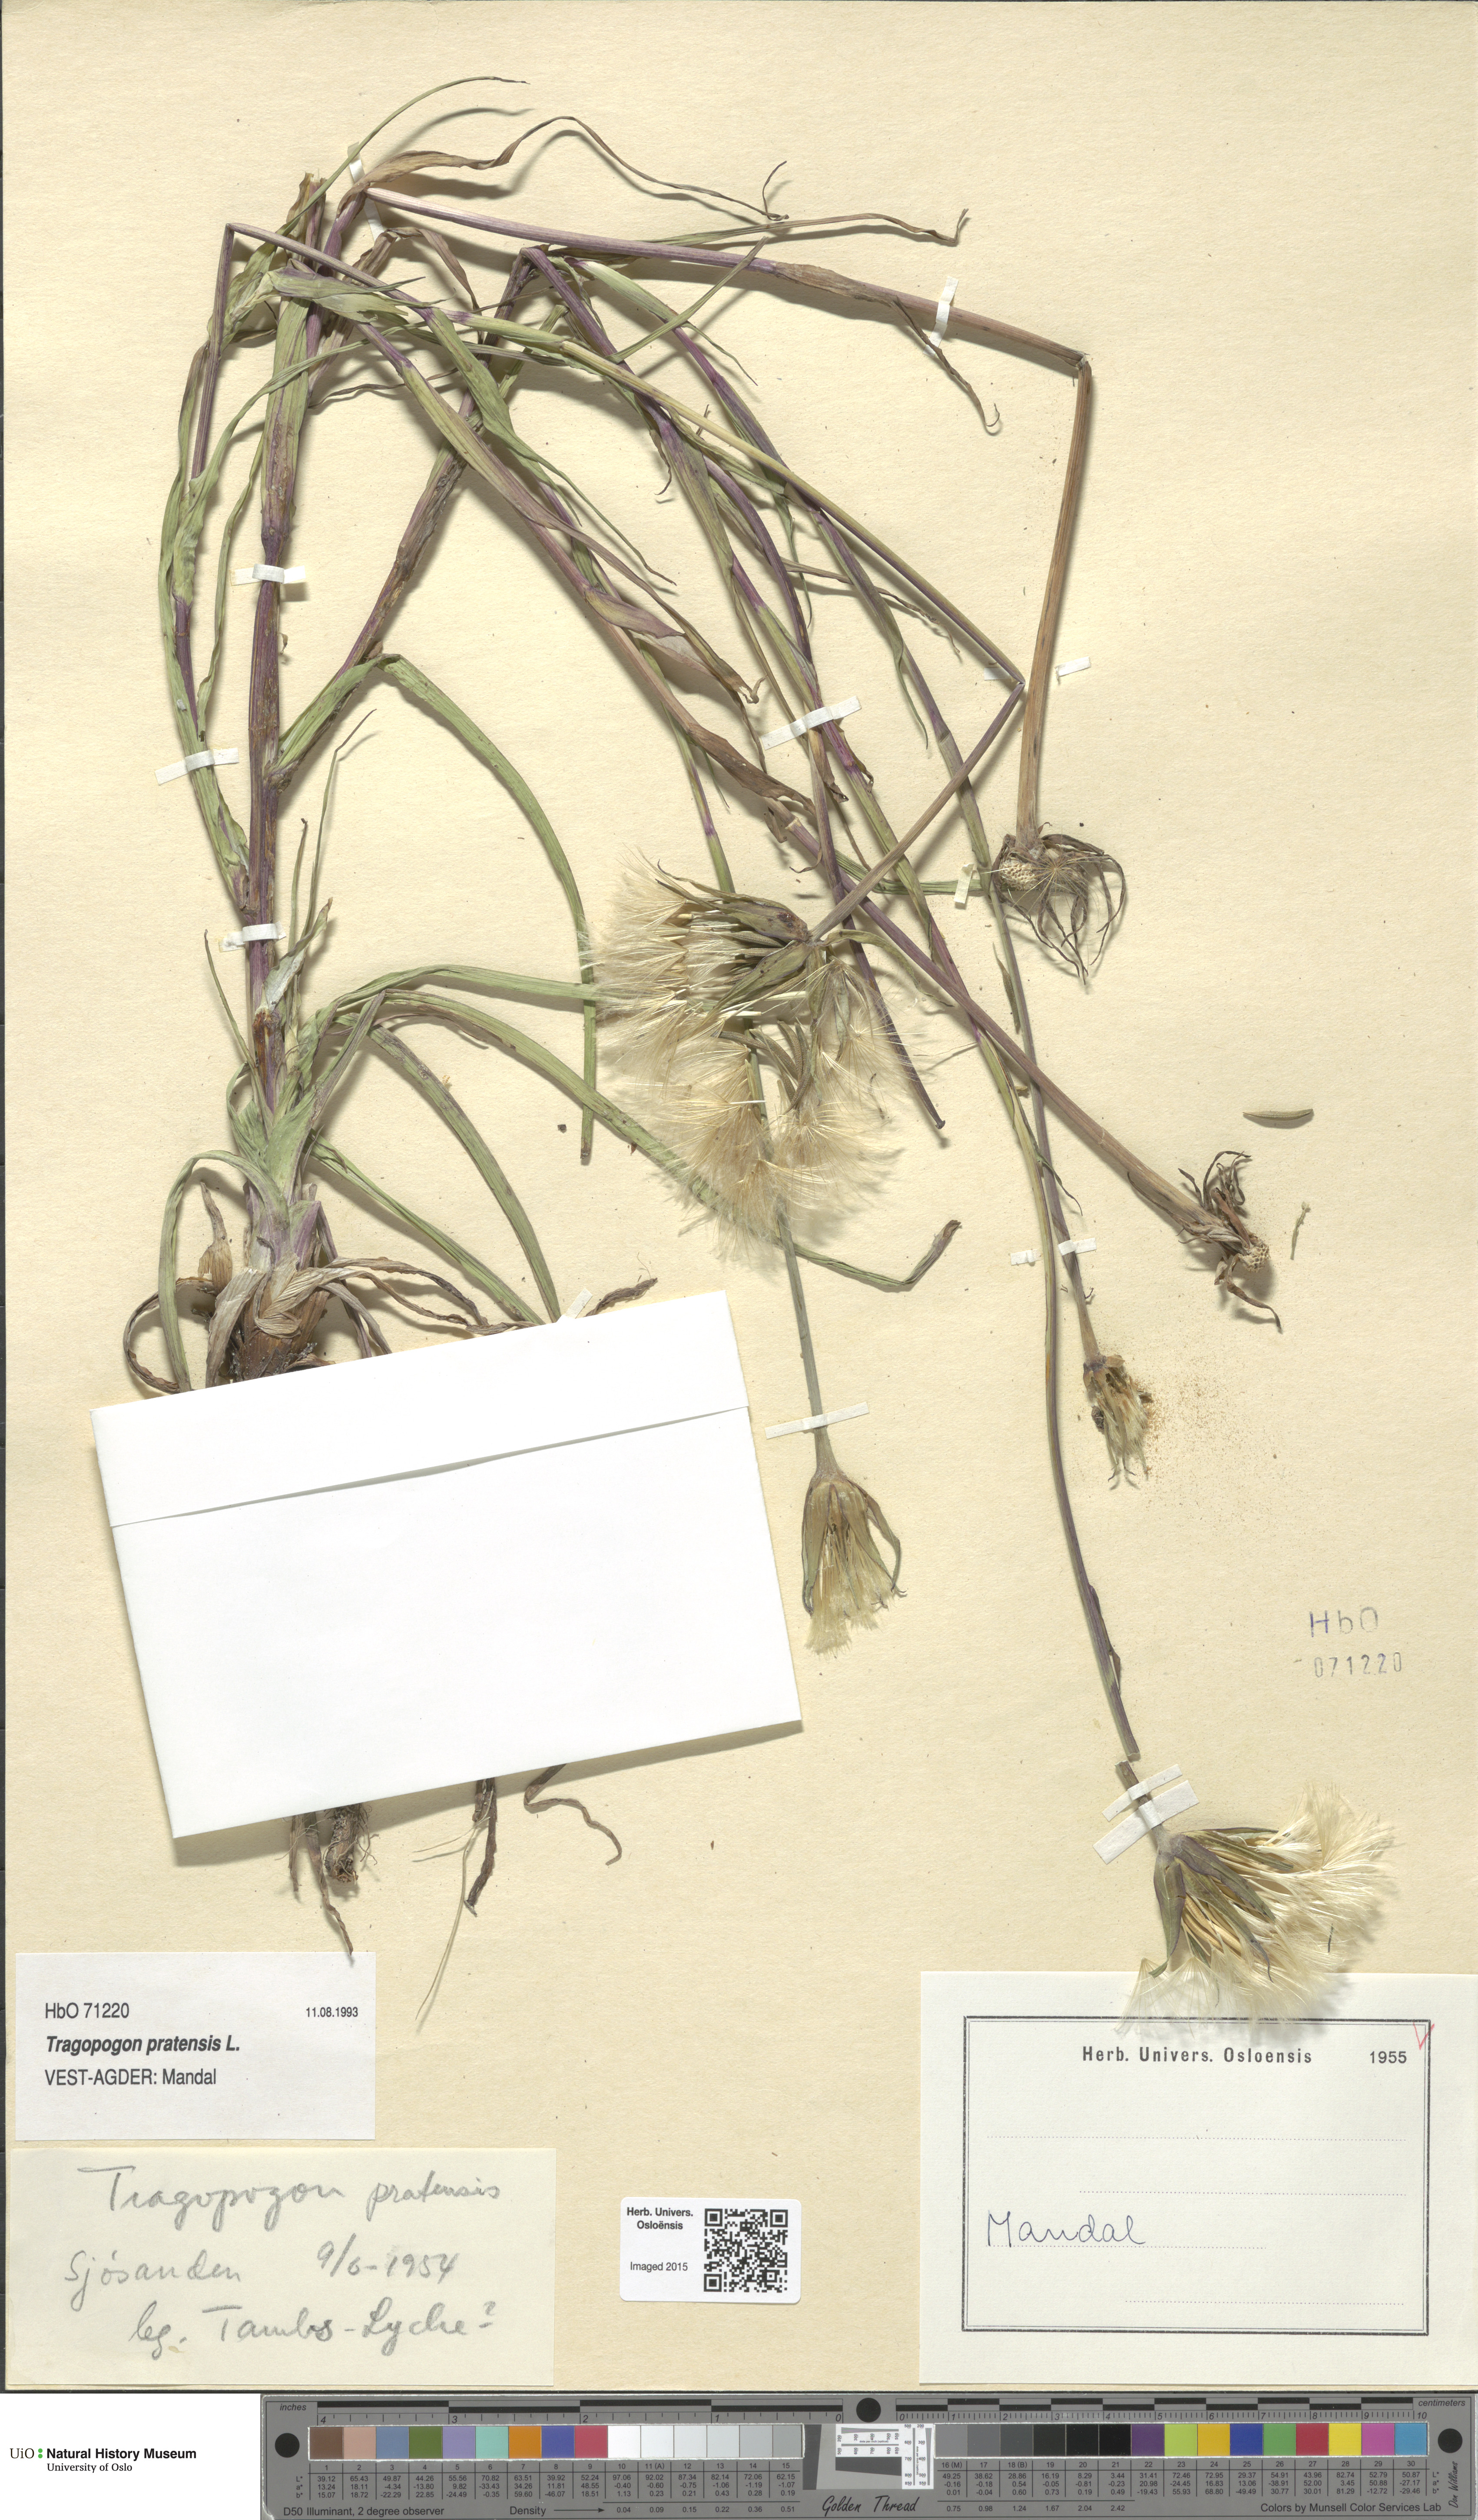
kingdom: Plantae
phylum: Tracheophyta
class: Magnoliopsida
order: Asterales
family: Asteraceae
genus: Tragopogon
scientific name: Tragopogon pratensis
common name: Goat's-beard
